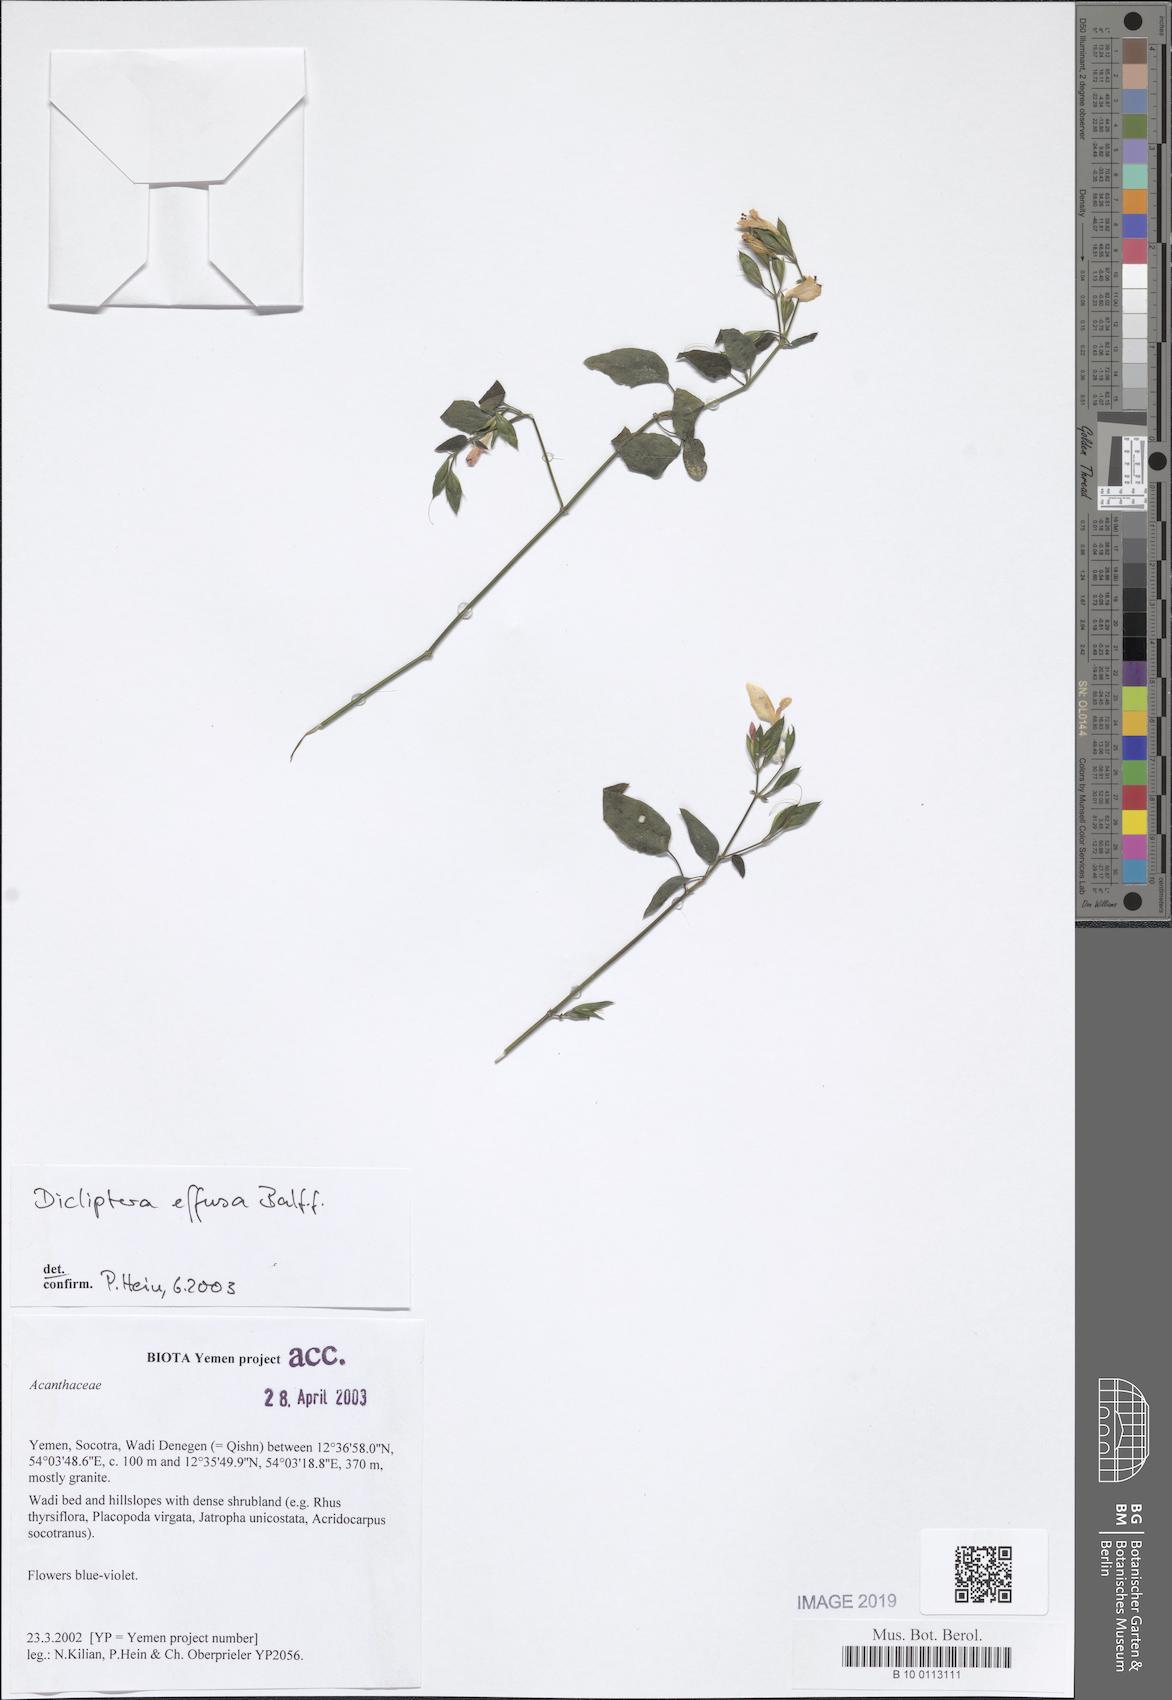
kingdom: Plantae
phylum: Tracheophyta
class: Magnoliopsida
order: Lamiales
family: Acanthaceae
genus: Dicliptera
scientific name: Dicliptera effusa
